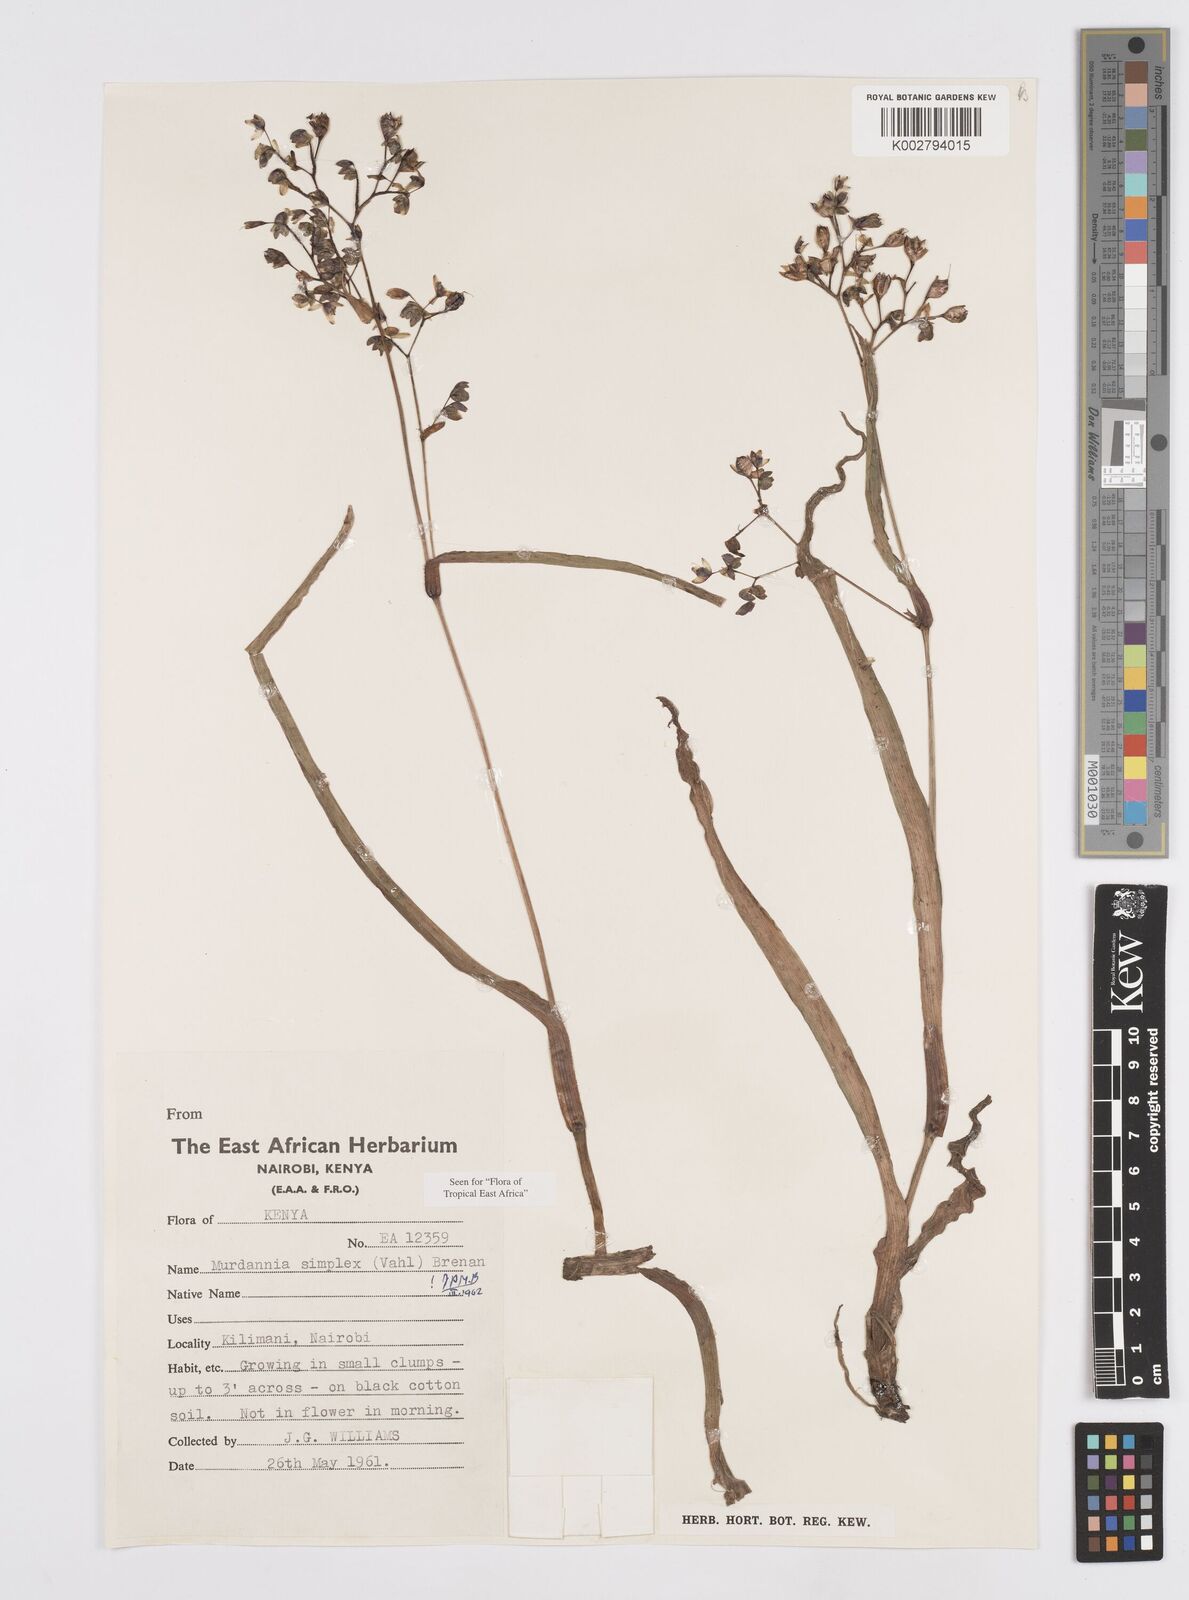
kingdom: Plantae
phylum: Tracheophyta
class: Liliopsida
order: Commelinales
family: Commelinaceae
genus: Murdannia
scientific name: Murdannia simplex
